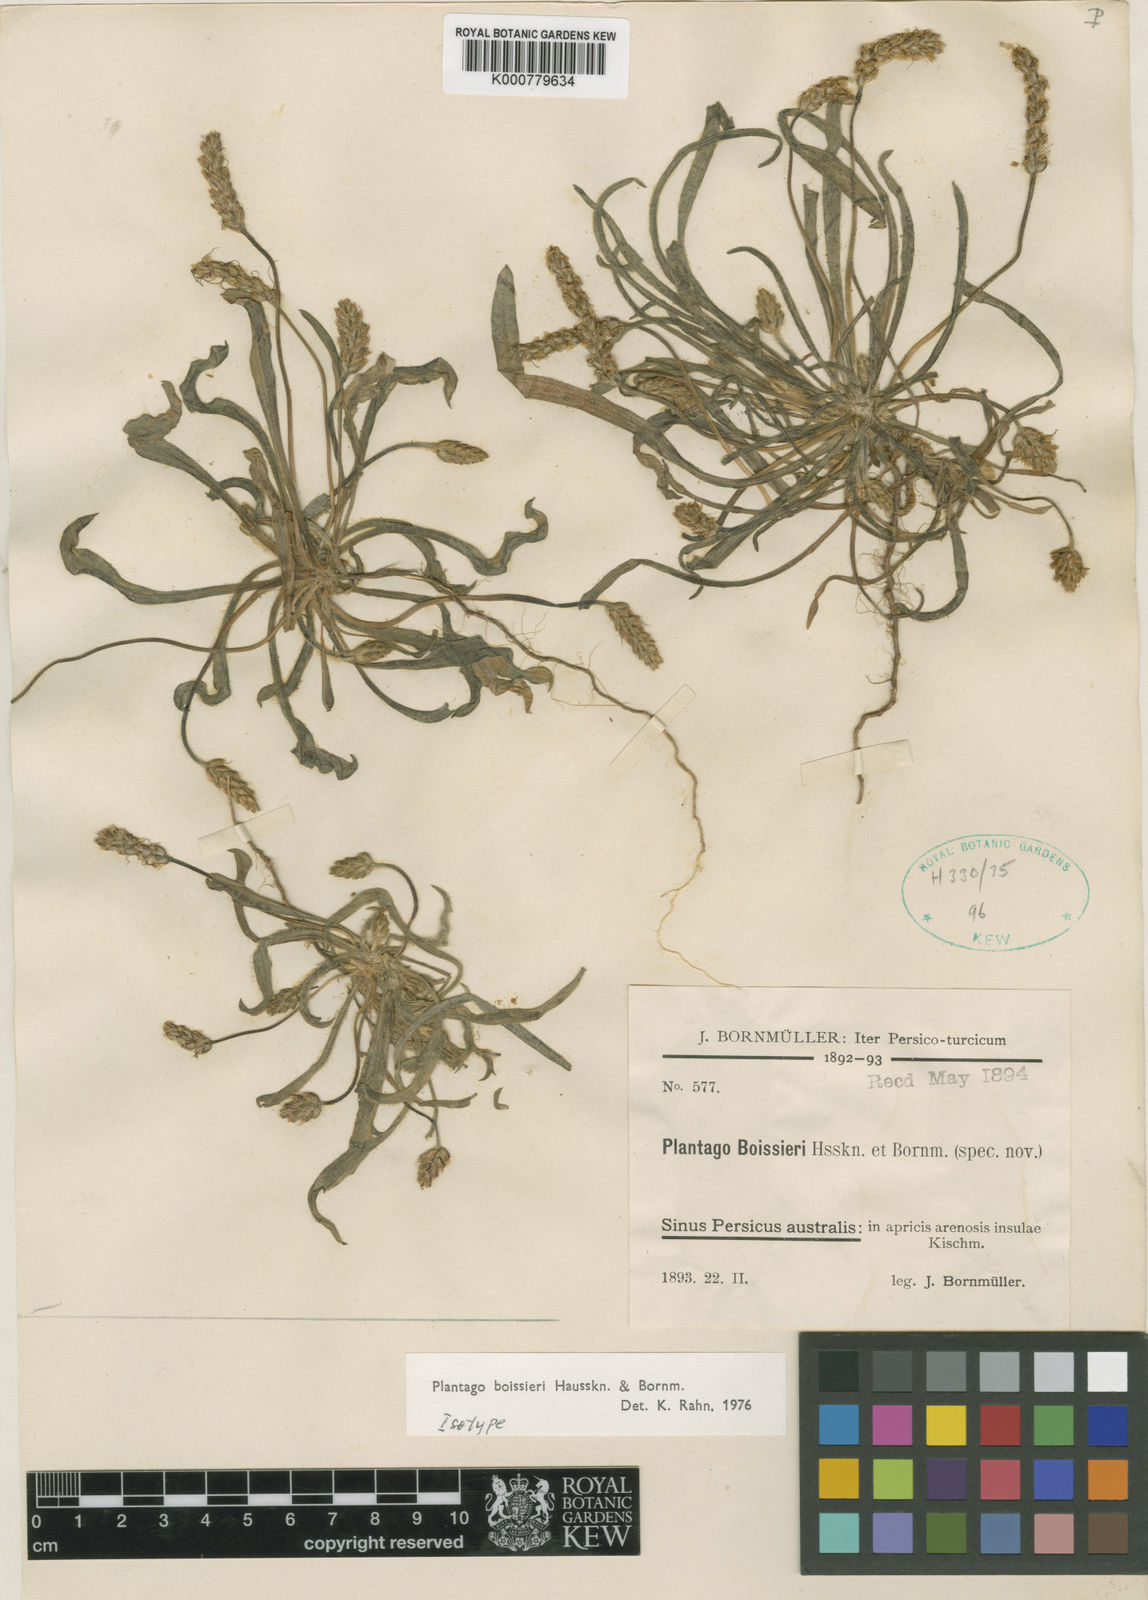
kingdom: Plantae
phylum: Tracheophyta
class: Magnoliopsida
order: Lamiales
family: Plantaginaceae
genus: Plantago
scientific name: Plantago boissieri
